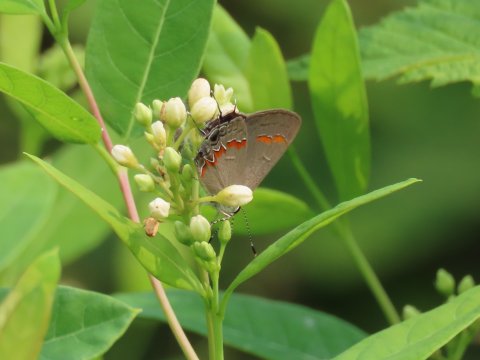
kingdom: Animalia
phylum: Arthropoda
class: Insecta
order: Lepidoptera
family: Lycaenidae
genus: Calycopis
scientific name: Calycopis cecrops
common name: Red-banded Hairstreak
